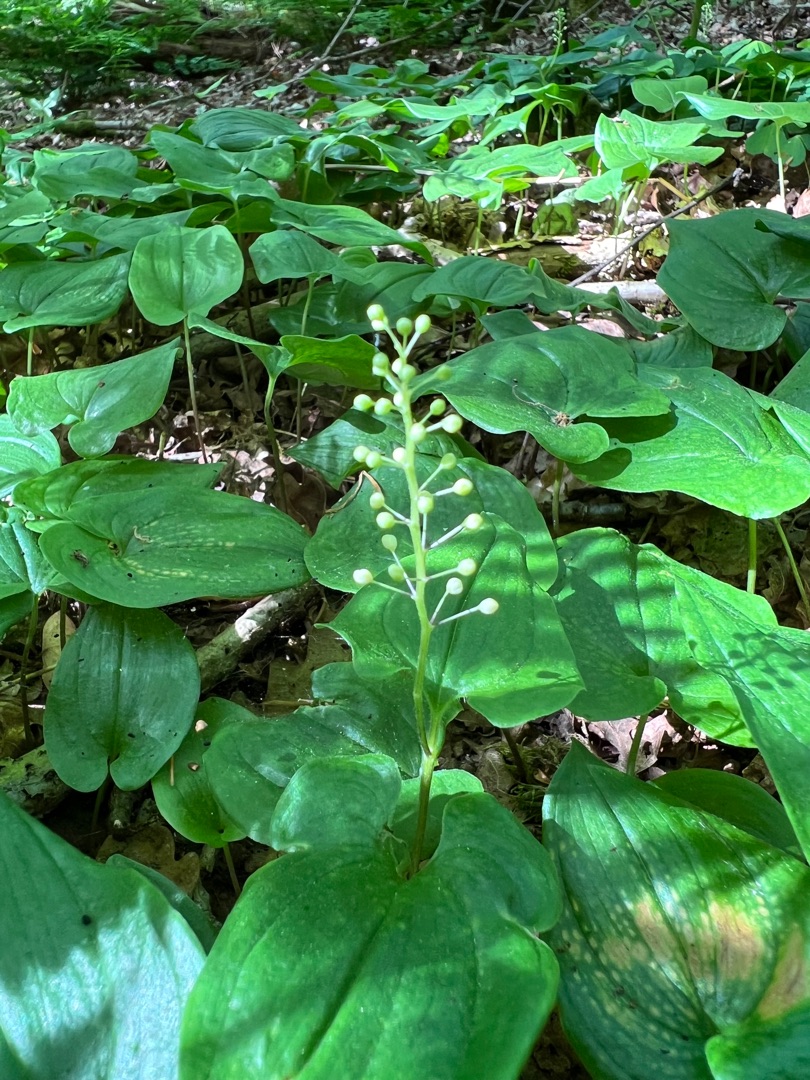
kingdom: Plantae
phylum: Tracheophyta
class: Liliopsida
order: Asparagales
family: Asparagaceae
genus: Maianthemum
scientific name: Maianthemum bifolium
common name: Majblomst
